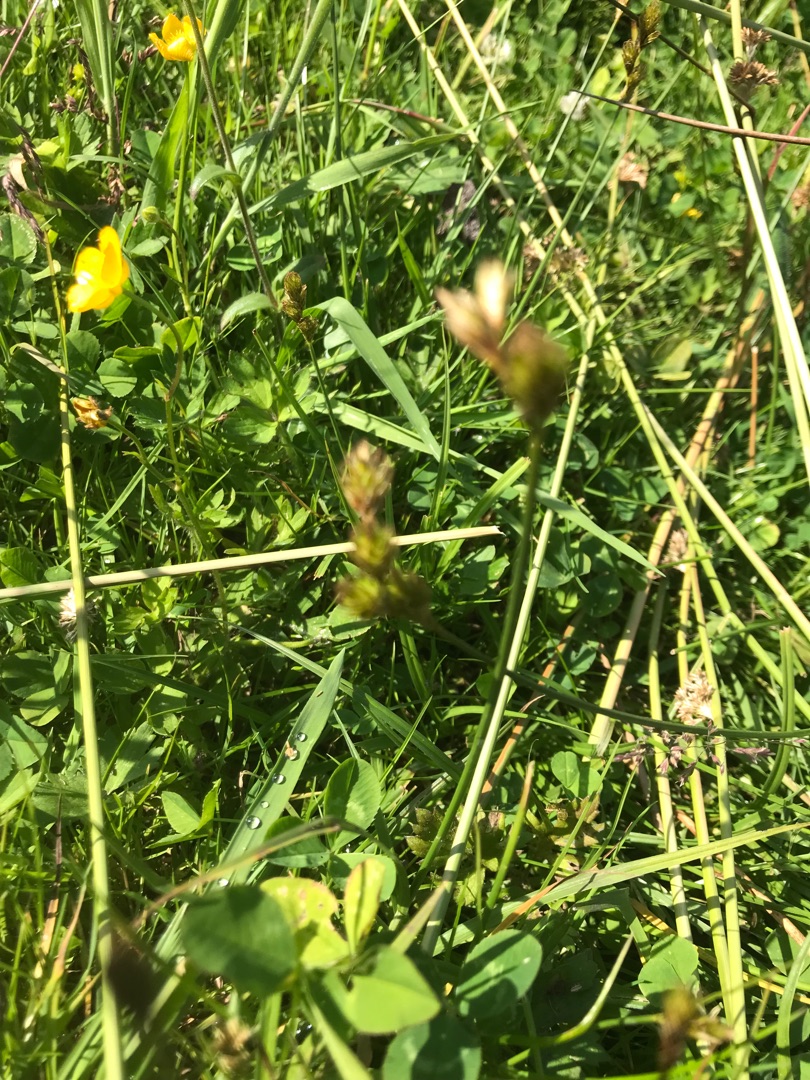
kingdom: Plantae
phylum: Tracheophyta
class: Liliopsida
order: Poales
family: Cyperaceae
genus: Carex
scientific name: Carex leporina
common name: Hare-star
